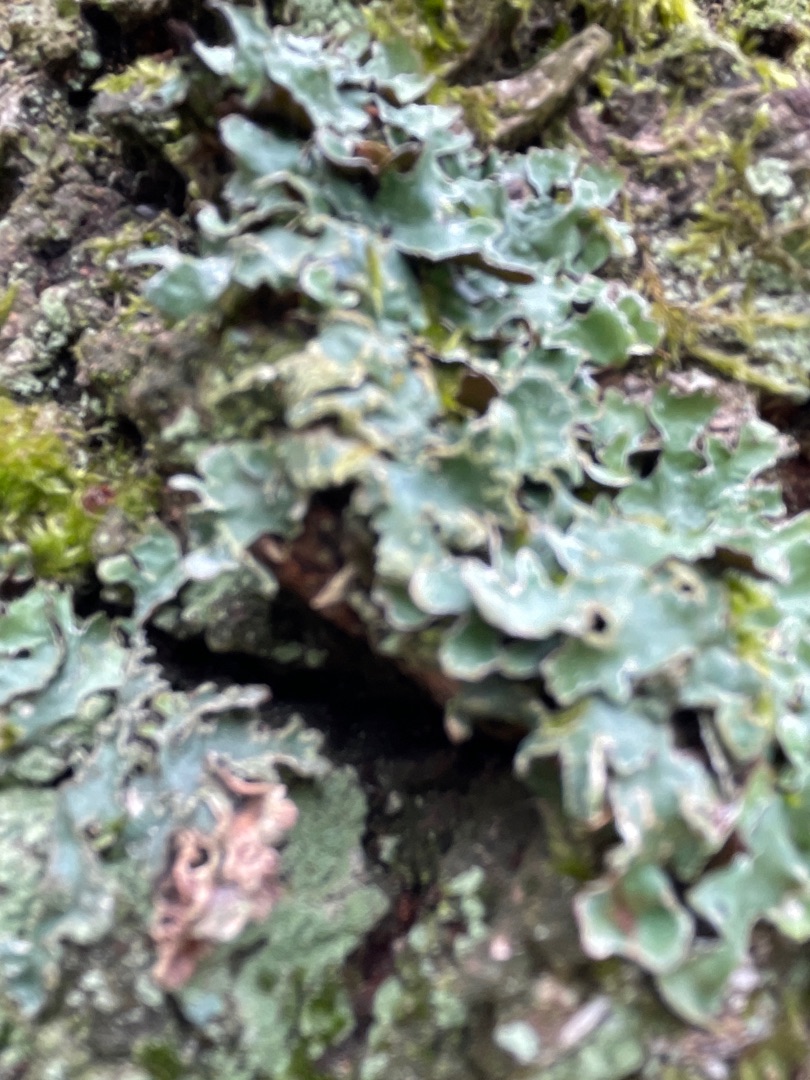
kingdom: Fungi
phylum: Ascomycota
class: Lecanoromycetes
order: Lecanorales
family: Parmeliaceae
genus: Parmelia
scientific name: Parmelia sulcata
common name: Rynket skållav
